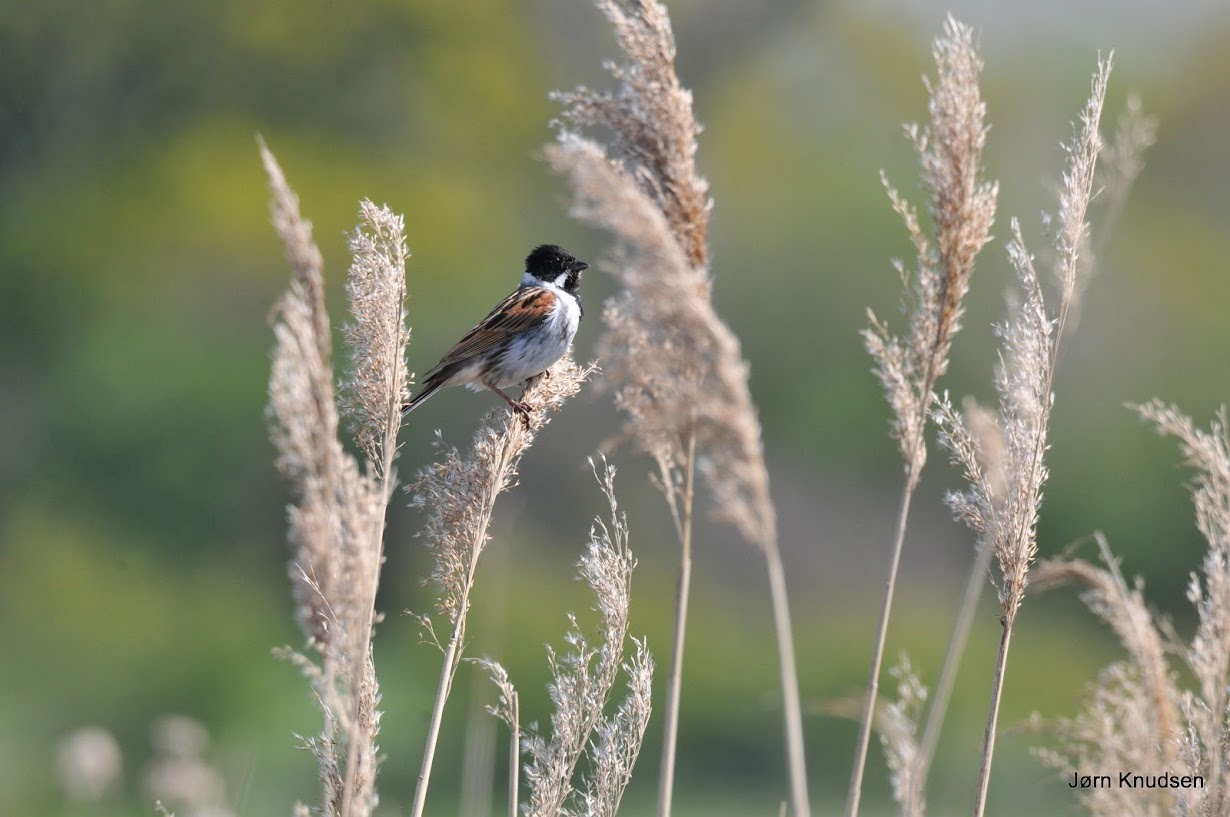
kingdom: Animalia
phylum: Chordata
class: Aves
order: Passeriformes
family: Emberizidae
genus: Emberiza
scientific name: Emberiza schoeniclus
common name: Rørspurv
